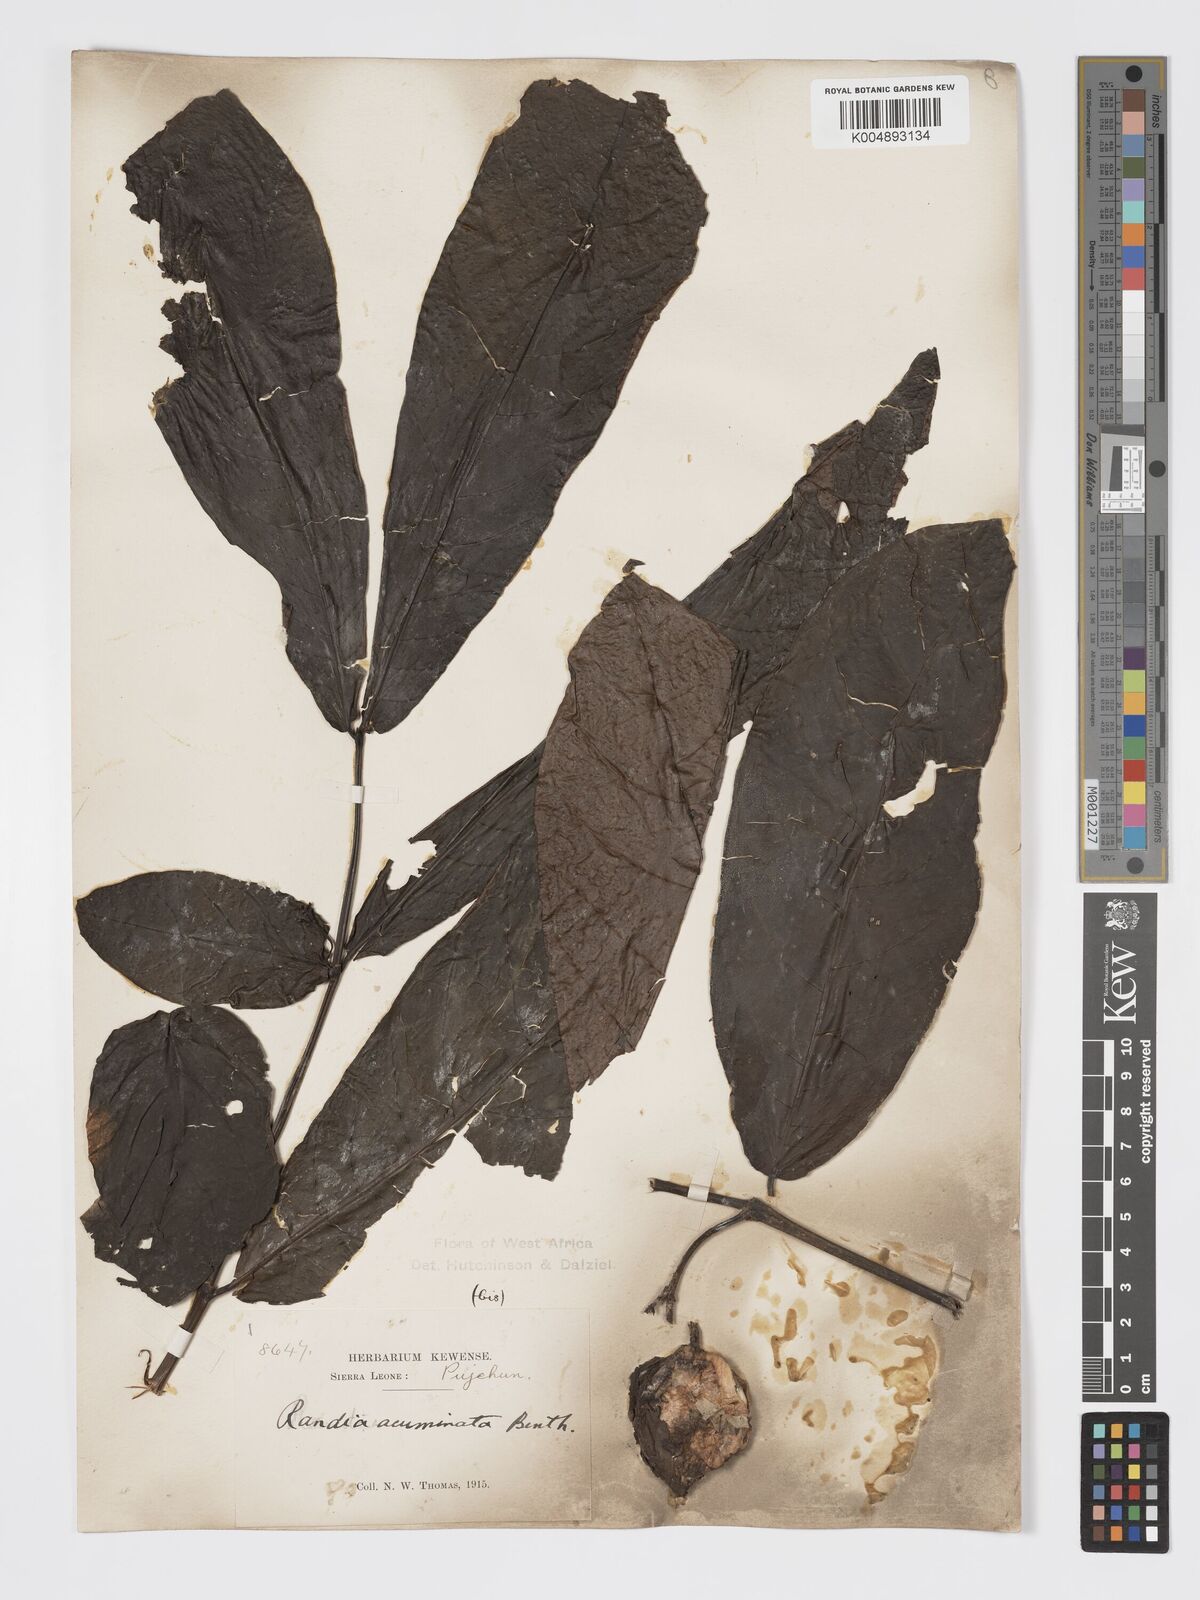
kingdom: Plantae
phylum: Tracheophyta
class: Magnoliopsida
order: Gentianales
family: Rubiaceae
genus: Massularia
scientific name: Massularia acuminata
